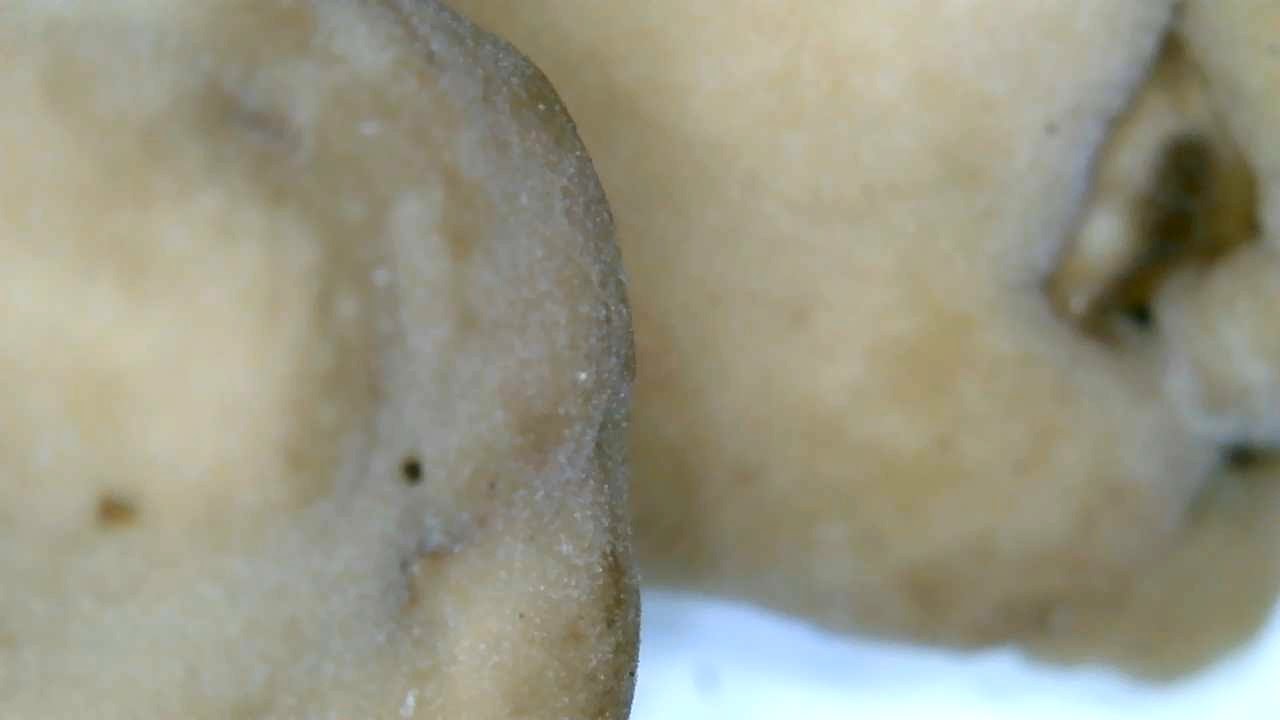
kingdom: Fungi
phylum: Ascomycota
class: Pezizomycetes
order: Pezizales
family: Helvellaceae
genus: Helvella
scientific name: Helvella elastica
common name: elastik-foldhat
